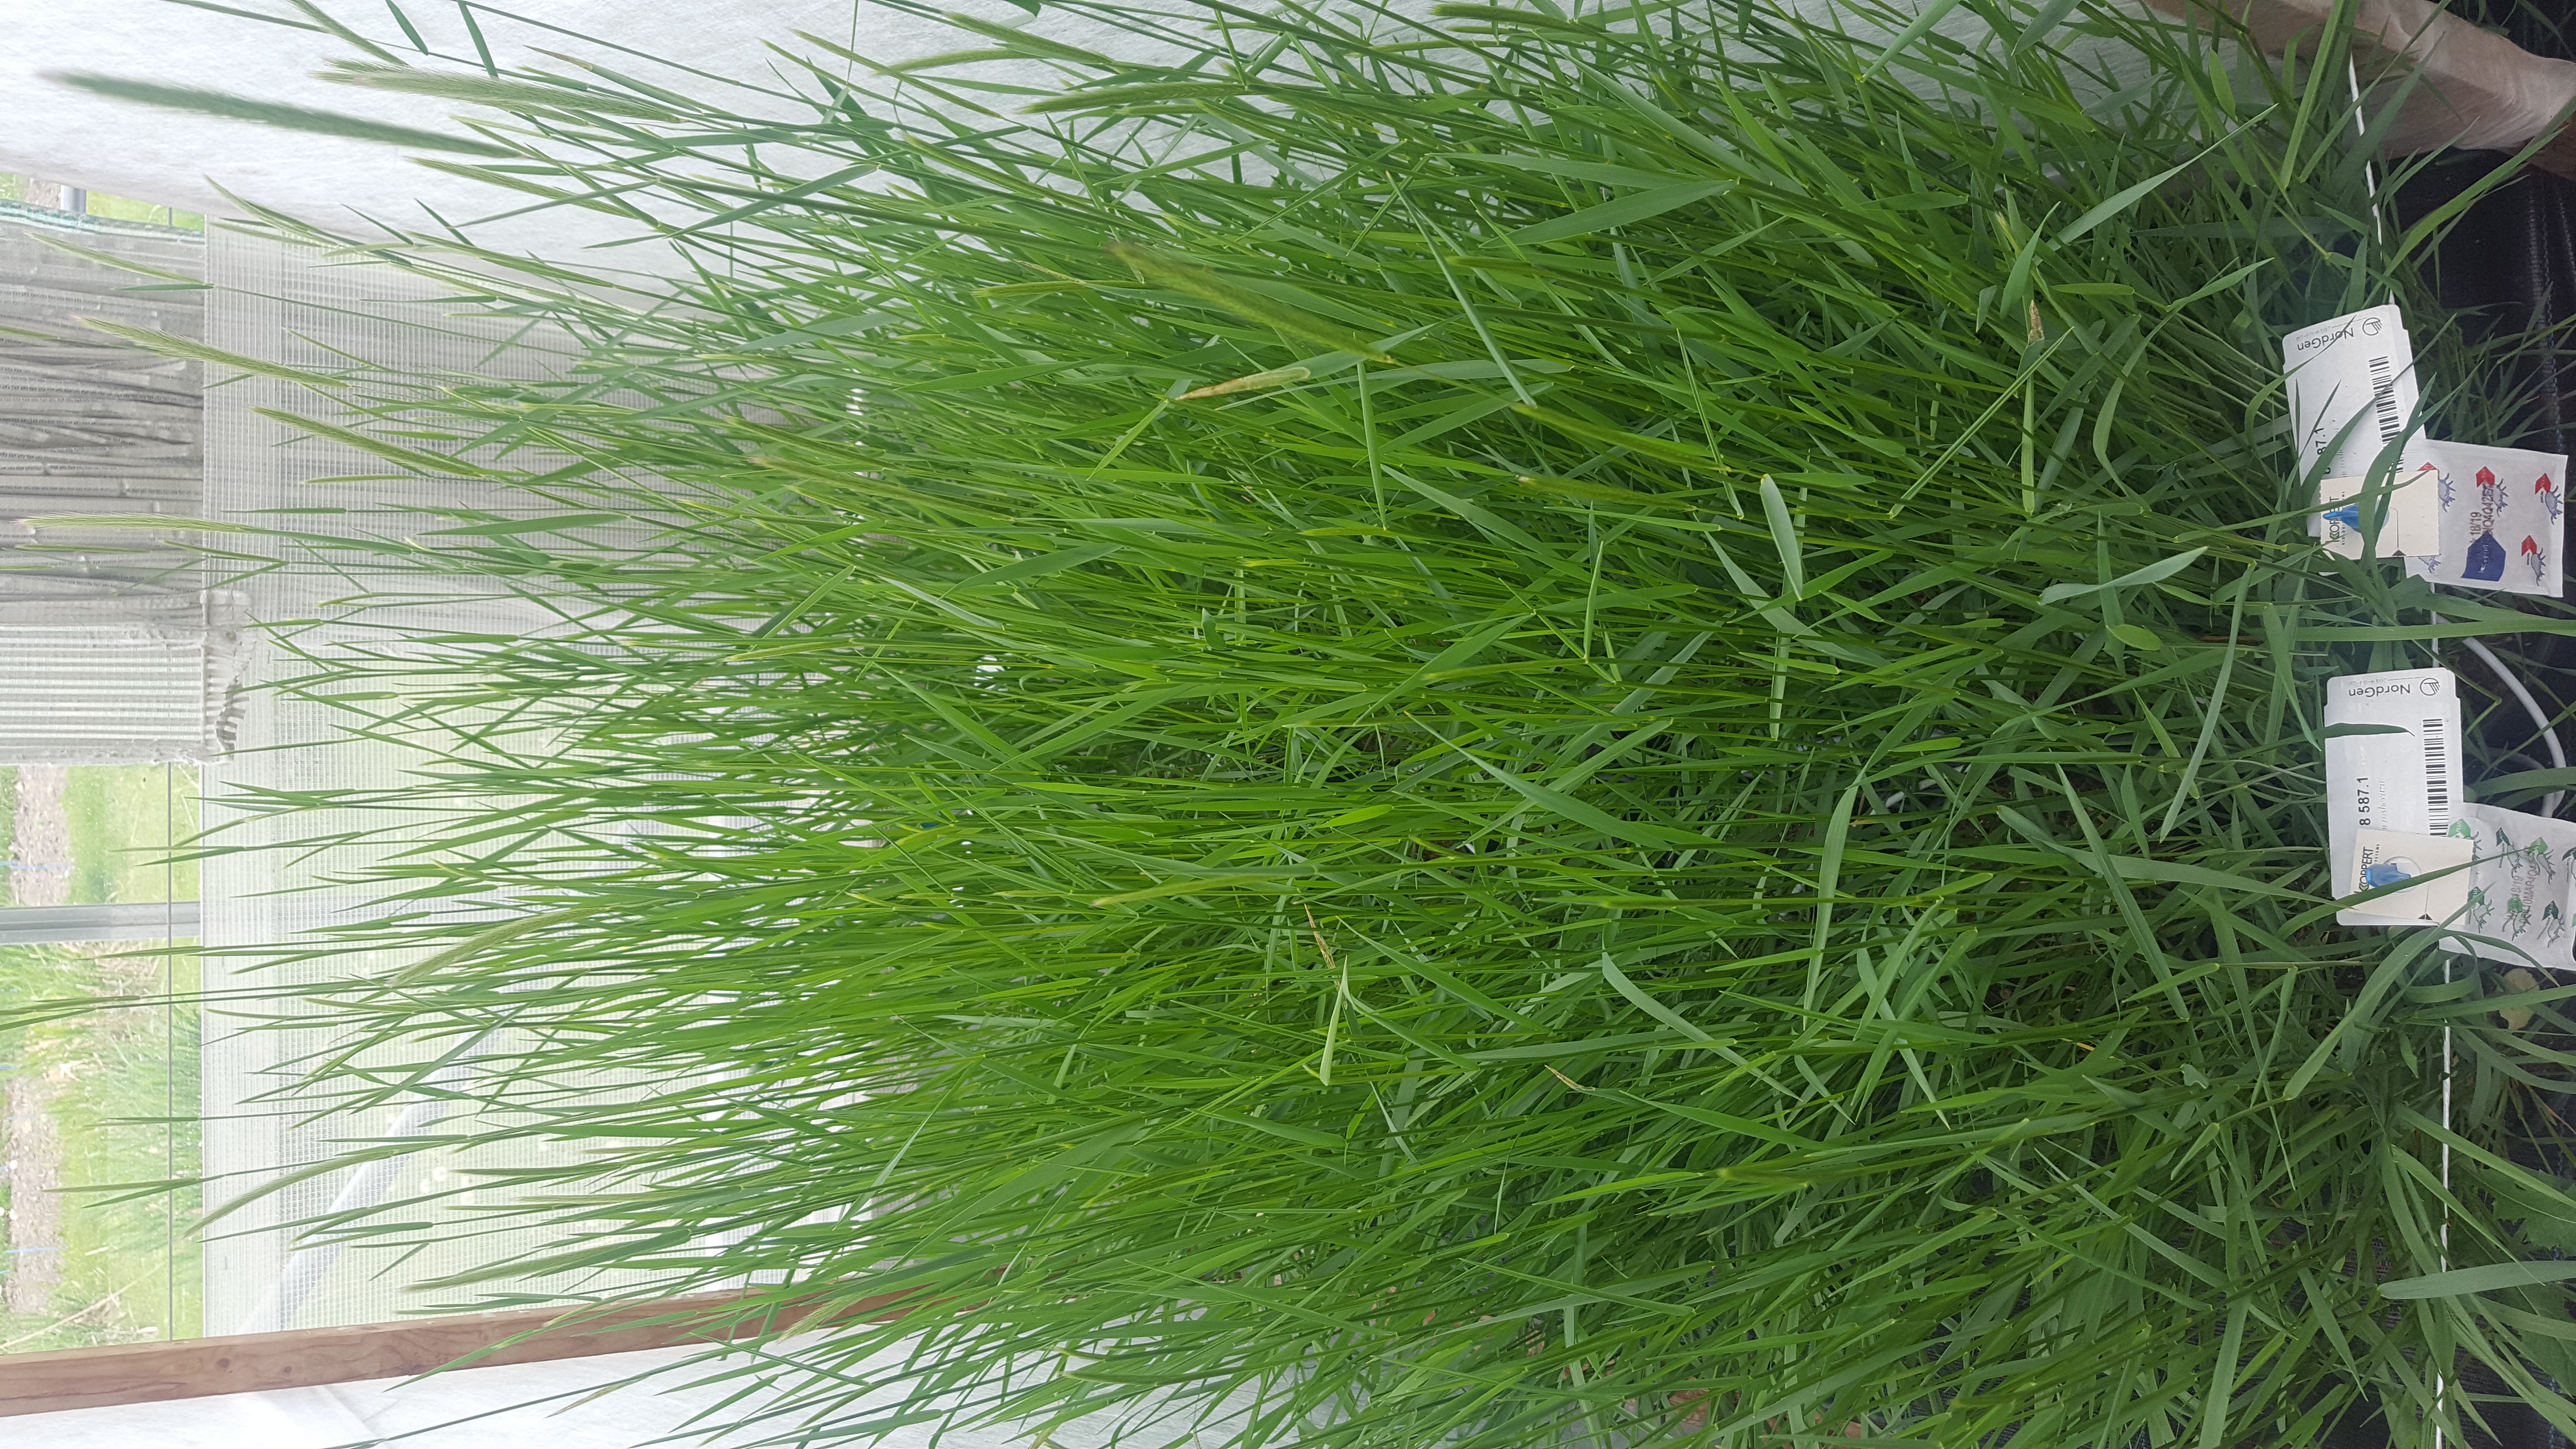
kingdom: Plantae
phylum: Tracheophyta
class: Liliopsida
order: Poales
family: Poaceae
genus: Hordeum
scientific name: Hordeum roshevitzii
